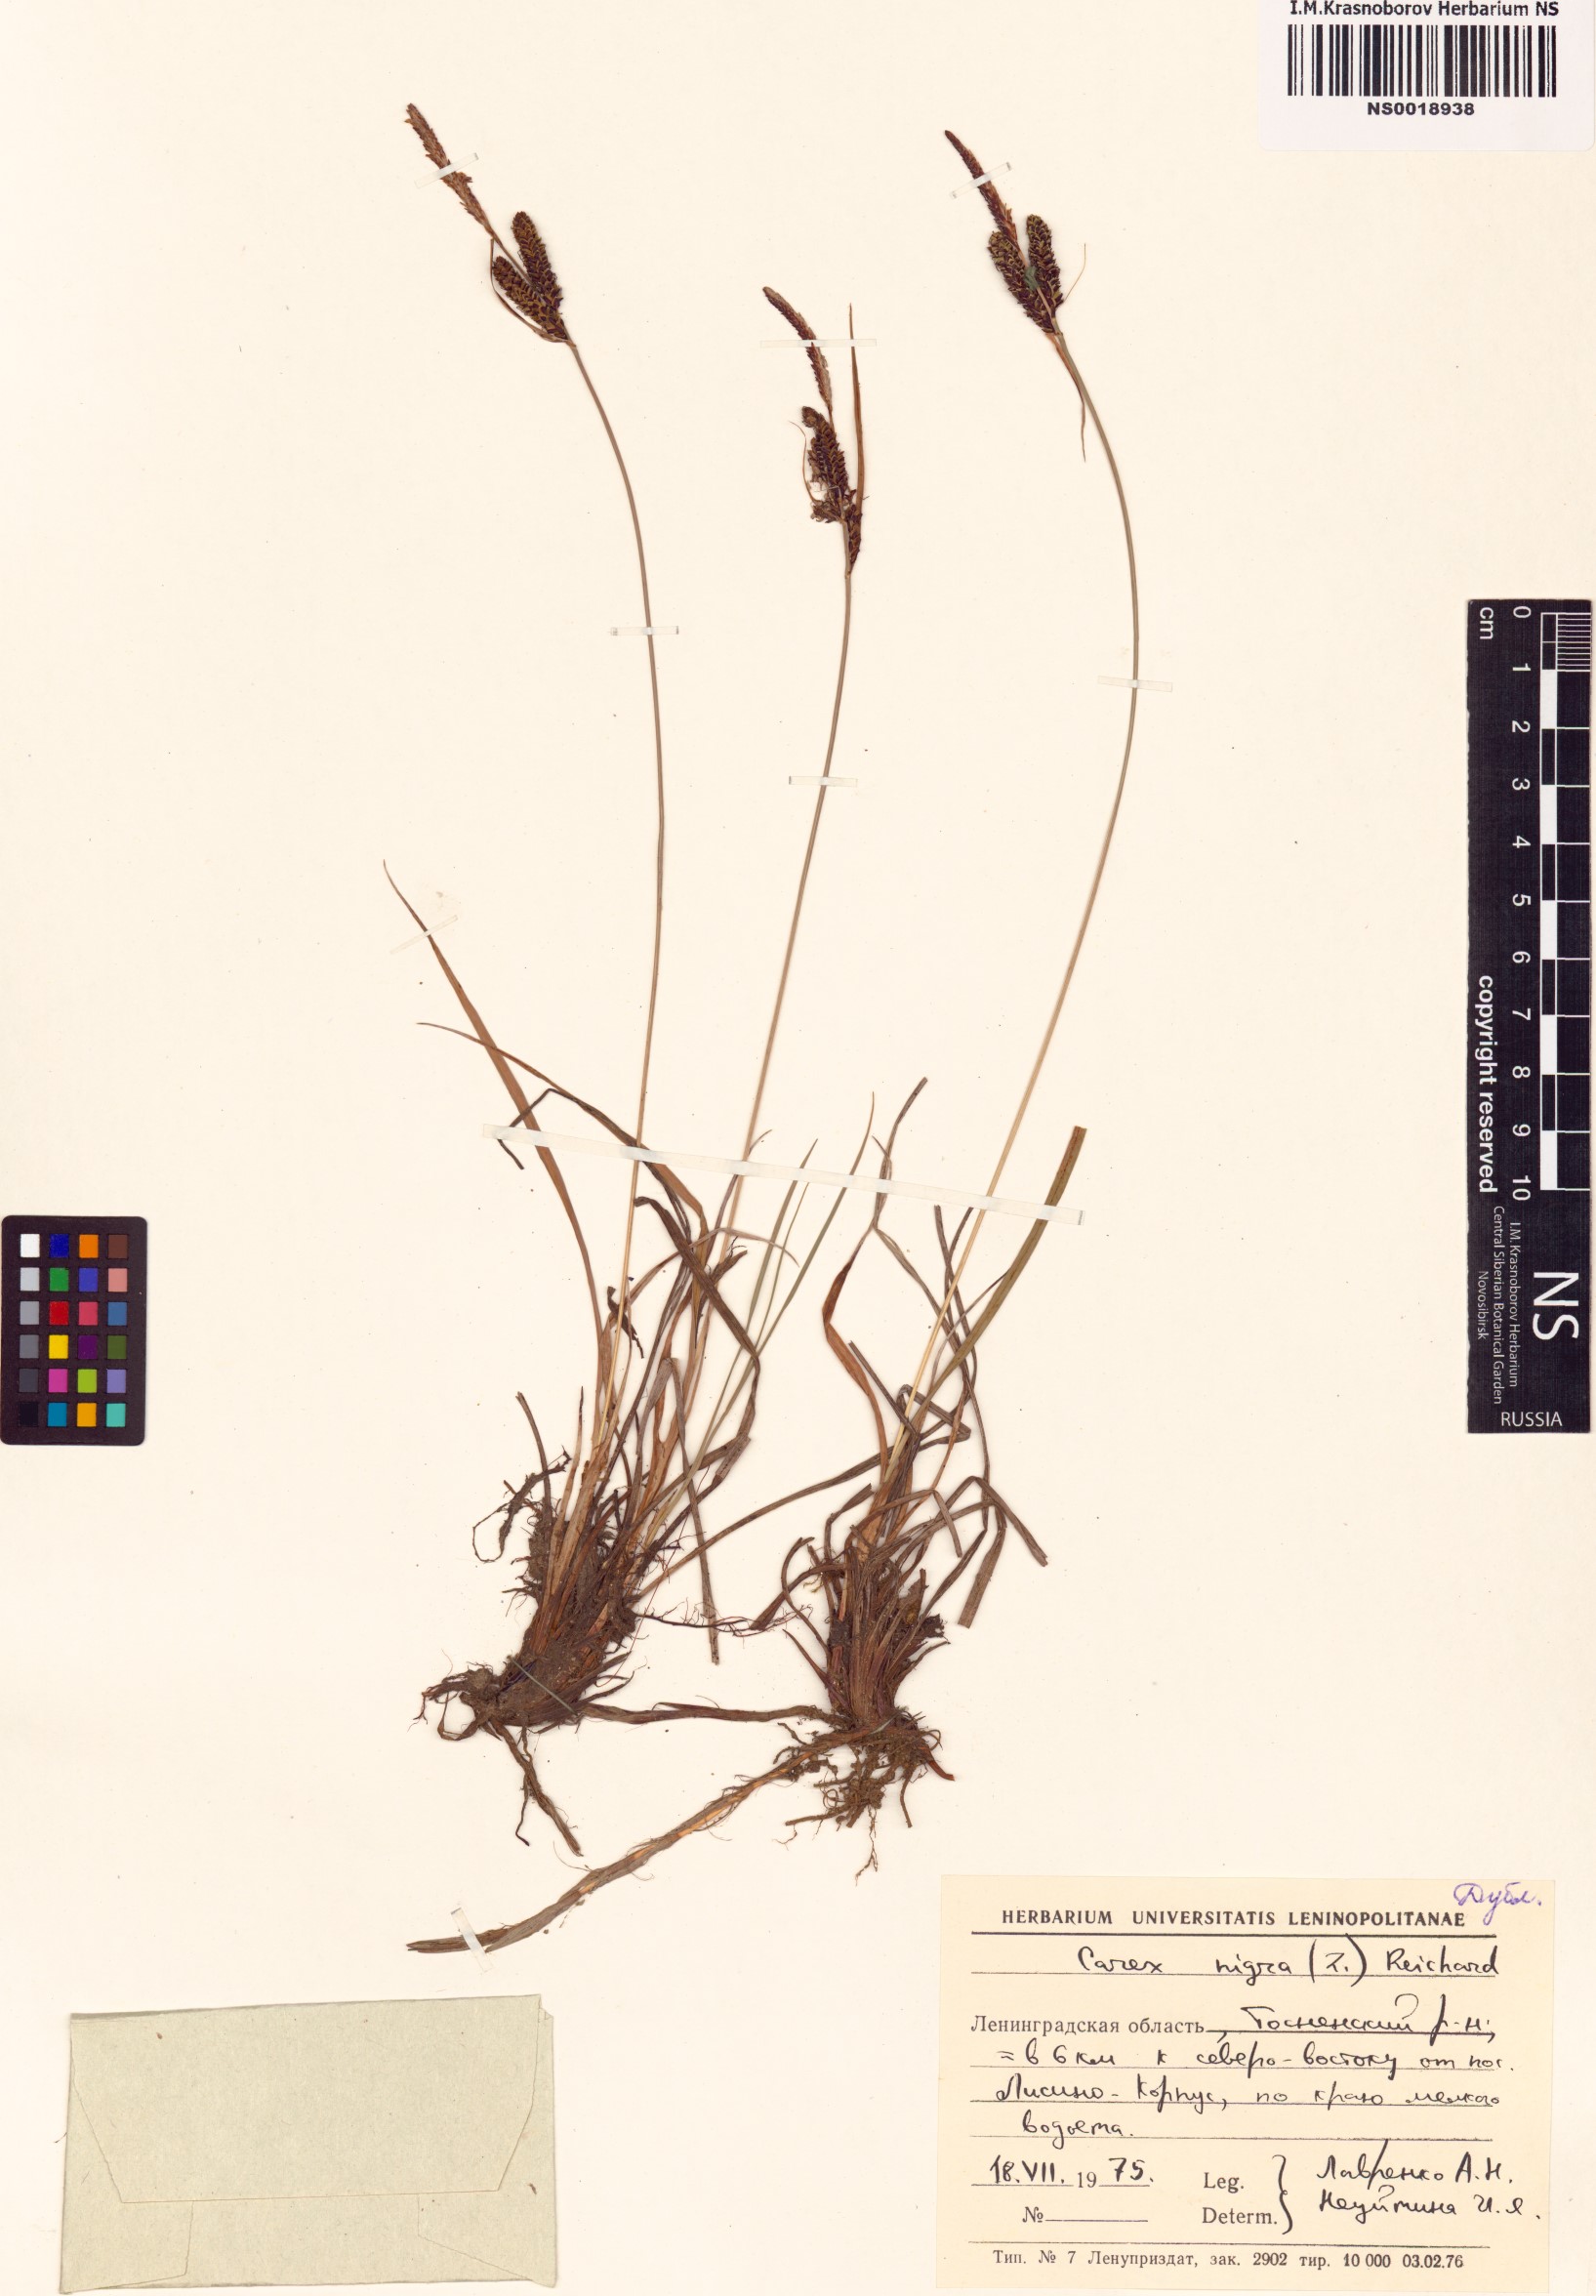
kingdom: Plantae
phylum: Tracheophyta
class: Liliopsida
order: Poales
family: Cyperaceae
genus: Carex
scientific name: Carex nigra
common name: Common sedge
